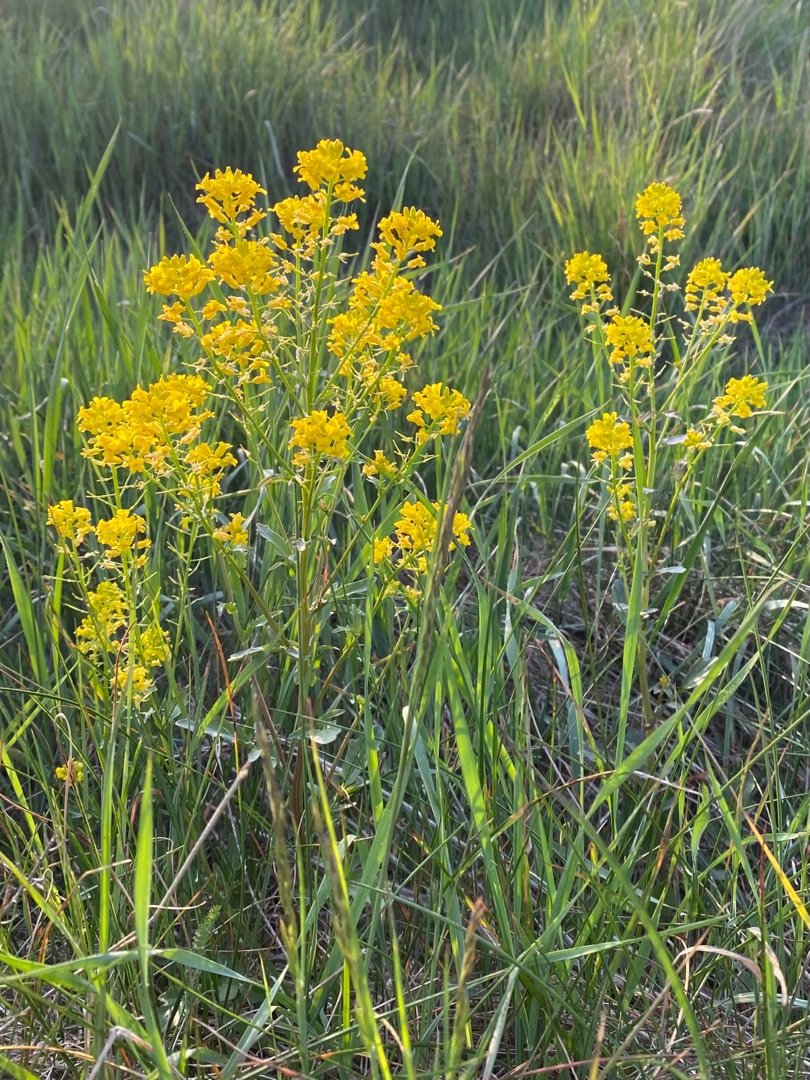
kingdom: Plantae
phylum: Tracheophyta
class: Magnoliopsida
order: Brassicales
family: Brassicaceae
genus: Barbarea
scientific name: Barbarea vulgaris
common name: Udspærret vinterkarse
